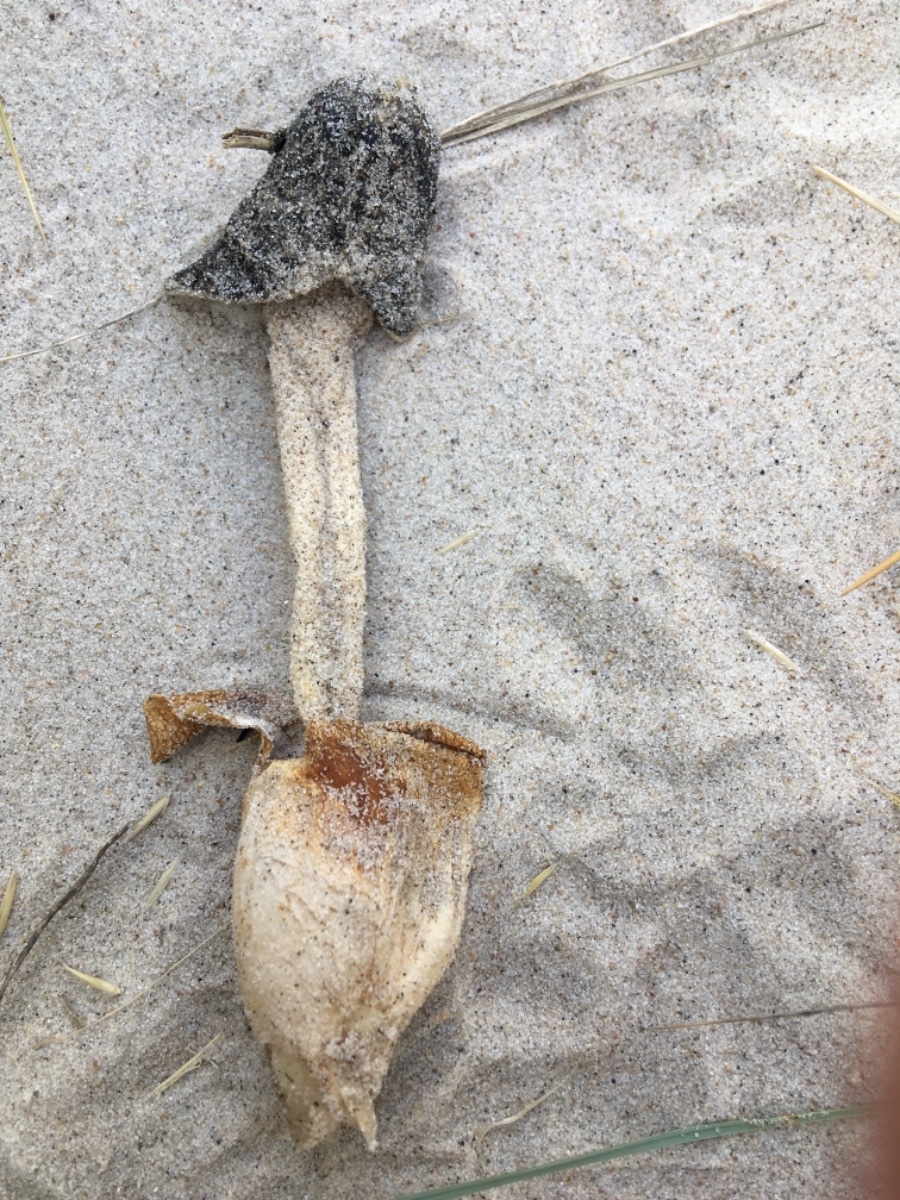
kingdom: Fungi
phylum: Basidiomycota
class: Agaricomycetes
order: Phallales
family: Phallaceae
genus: Phallus
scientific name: Phallus
